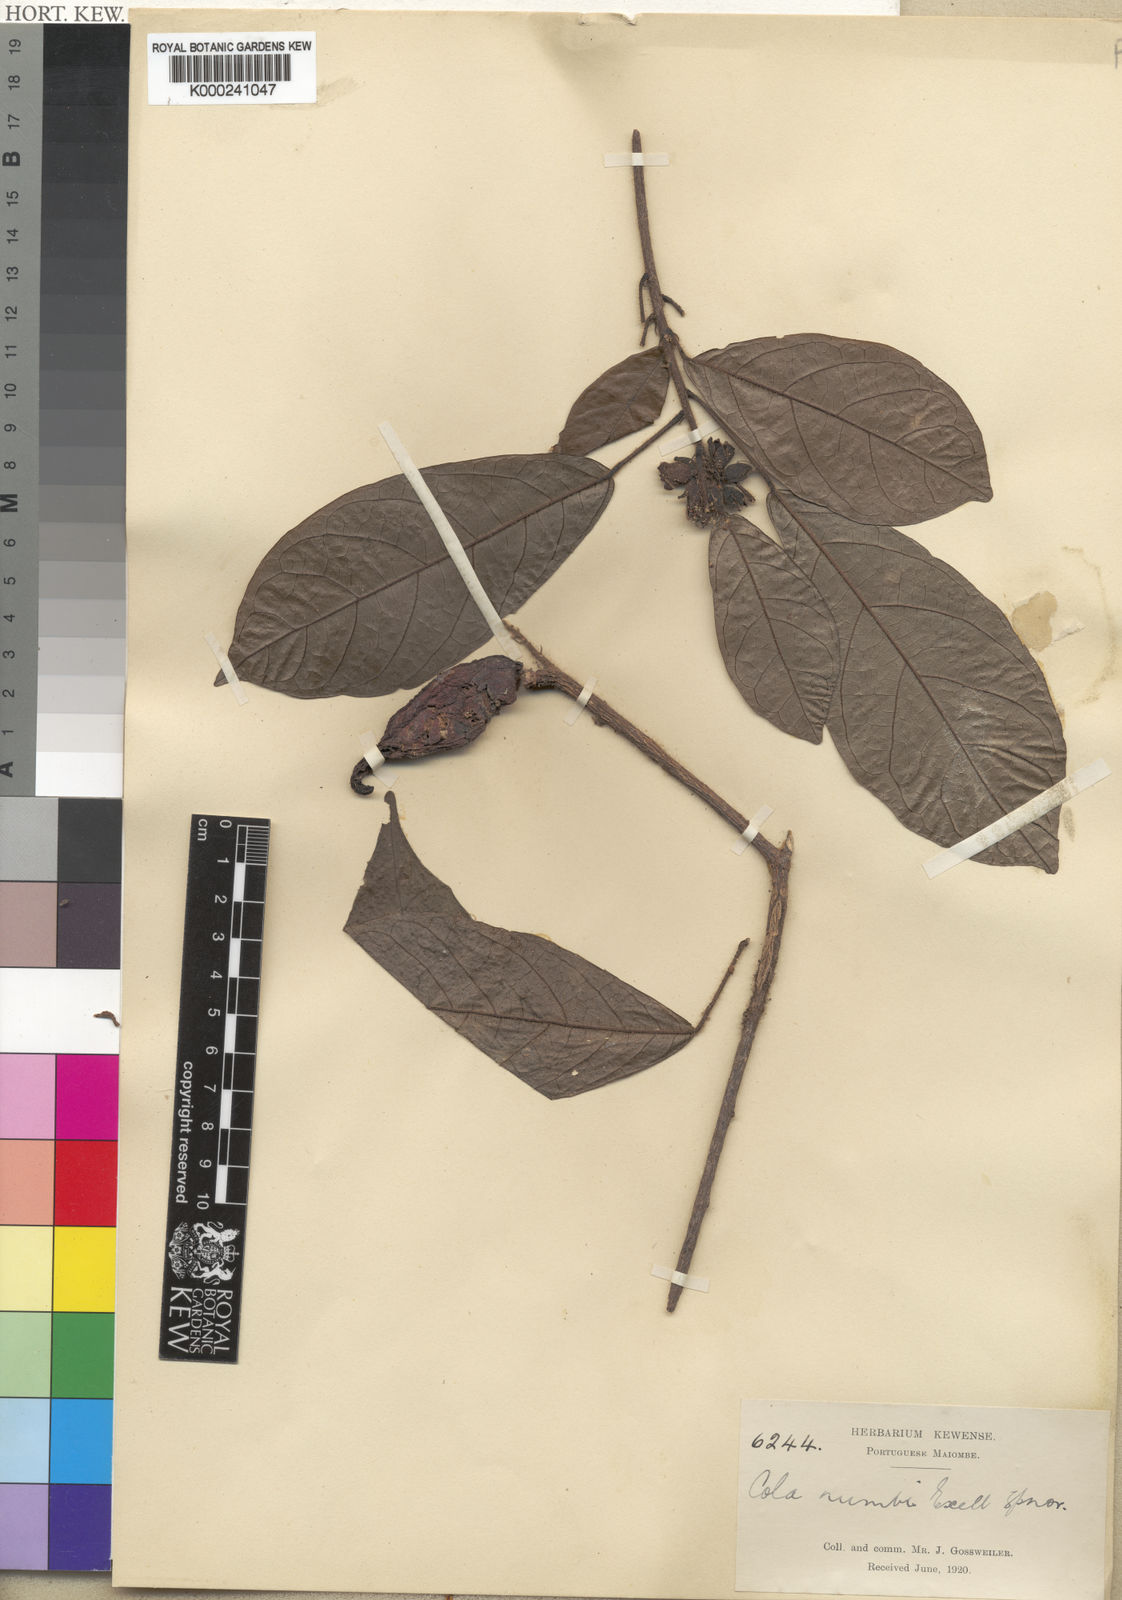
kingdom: Plantae
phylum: Tracheophyta
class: Magnoliopsida
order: Malvales
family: Malvaceae
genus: Cola
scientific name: Cola brevipes
